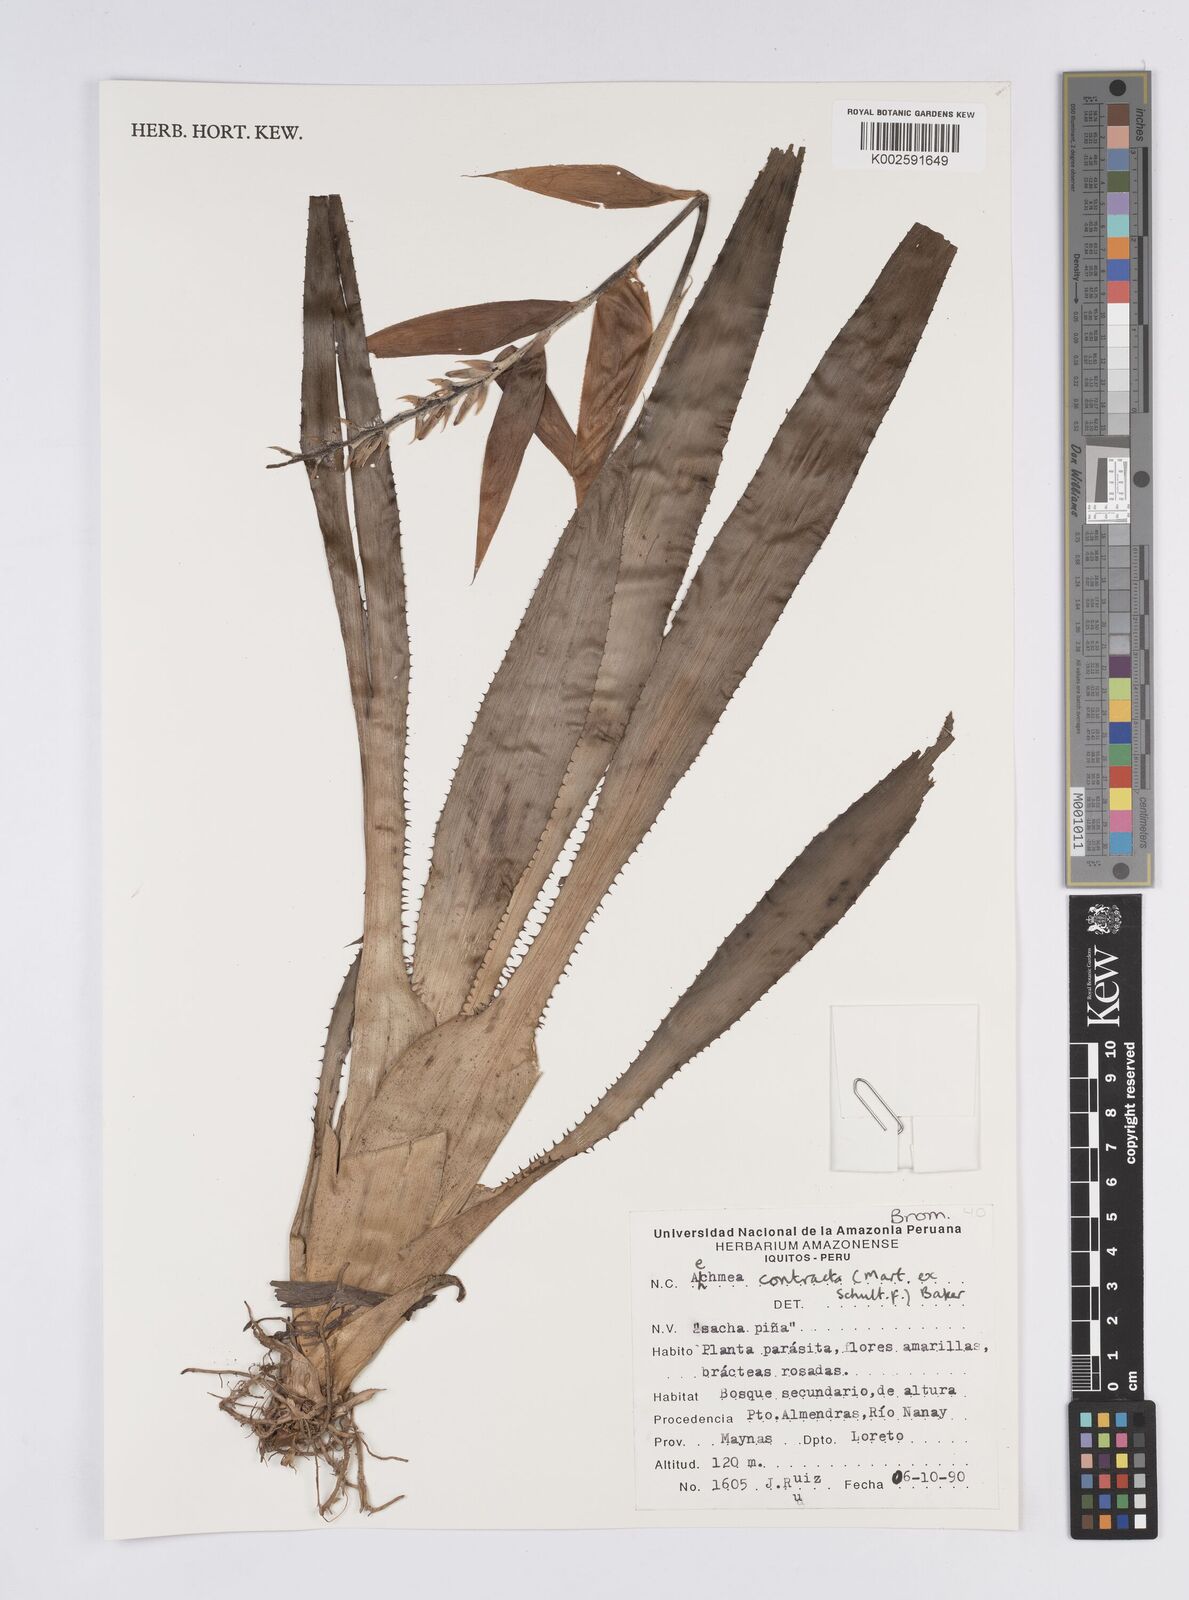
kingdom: Plantae
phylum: Tracheophyta
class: Liliopsida
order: Poales
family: Bromeliaceae
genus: Aechmea
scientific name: Aechmea contracta
